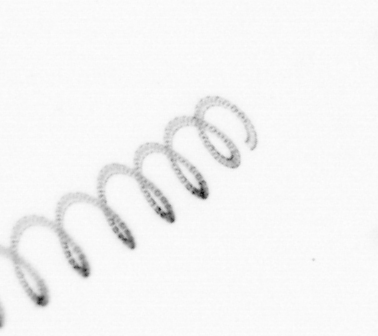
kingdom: Chromista
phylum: Ochrophyta
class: Bacillariophyceae
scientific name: Bacillariophyceae
